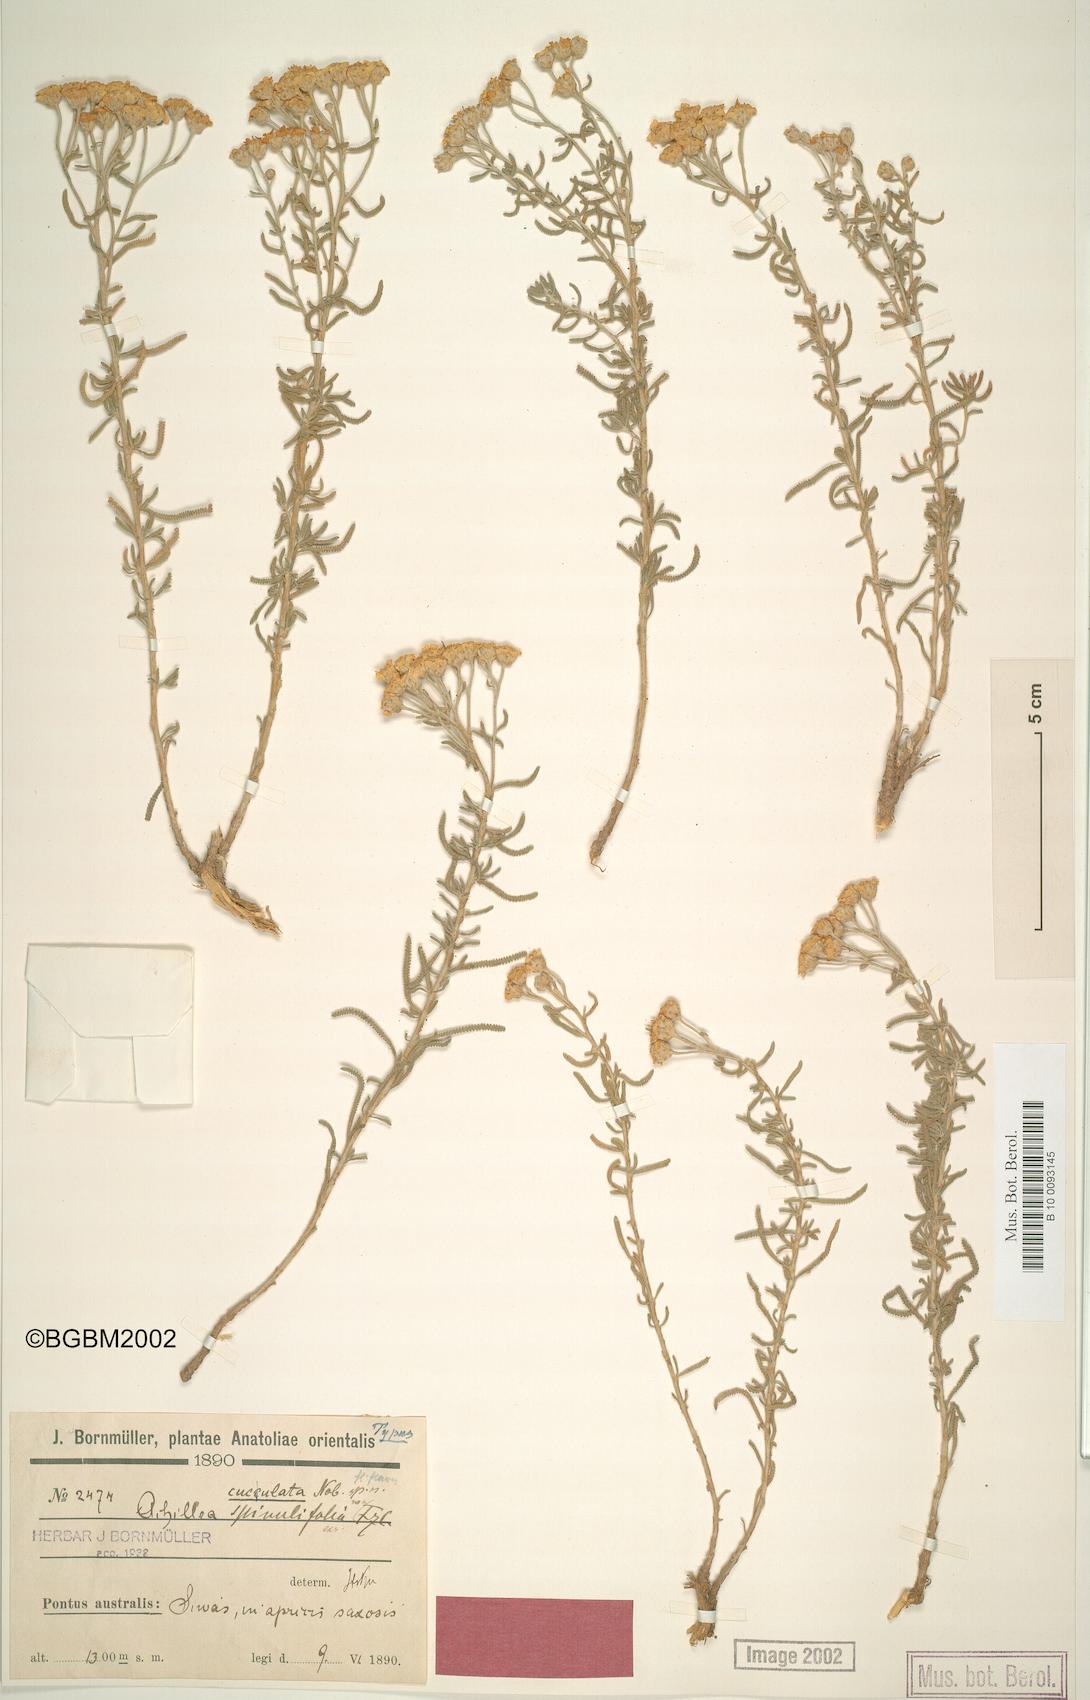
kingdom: Plantae
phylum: Tracheophyta
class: Magnoliopsida
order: Asterales
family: Asteraceae
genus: Achillea
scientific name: Achillea cucullata
